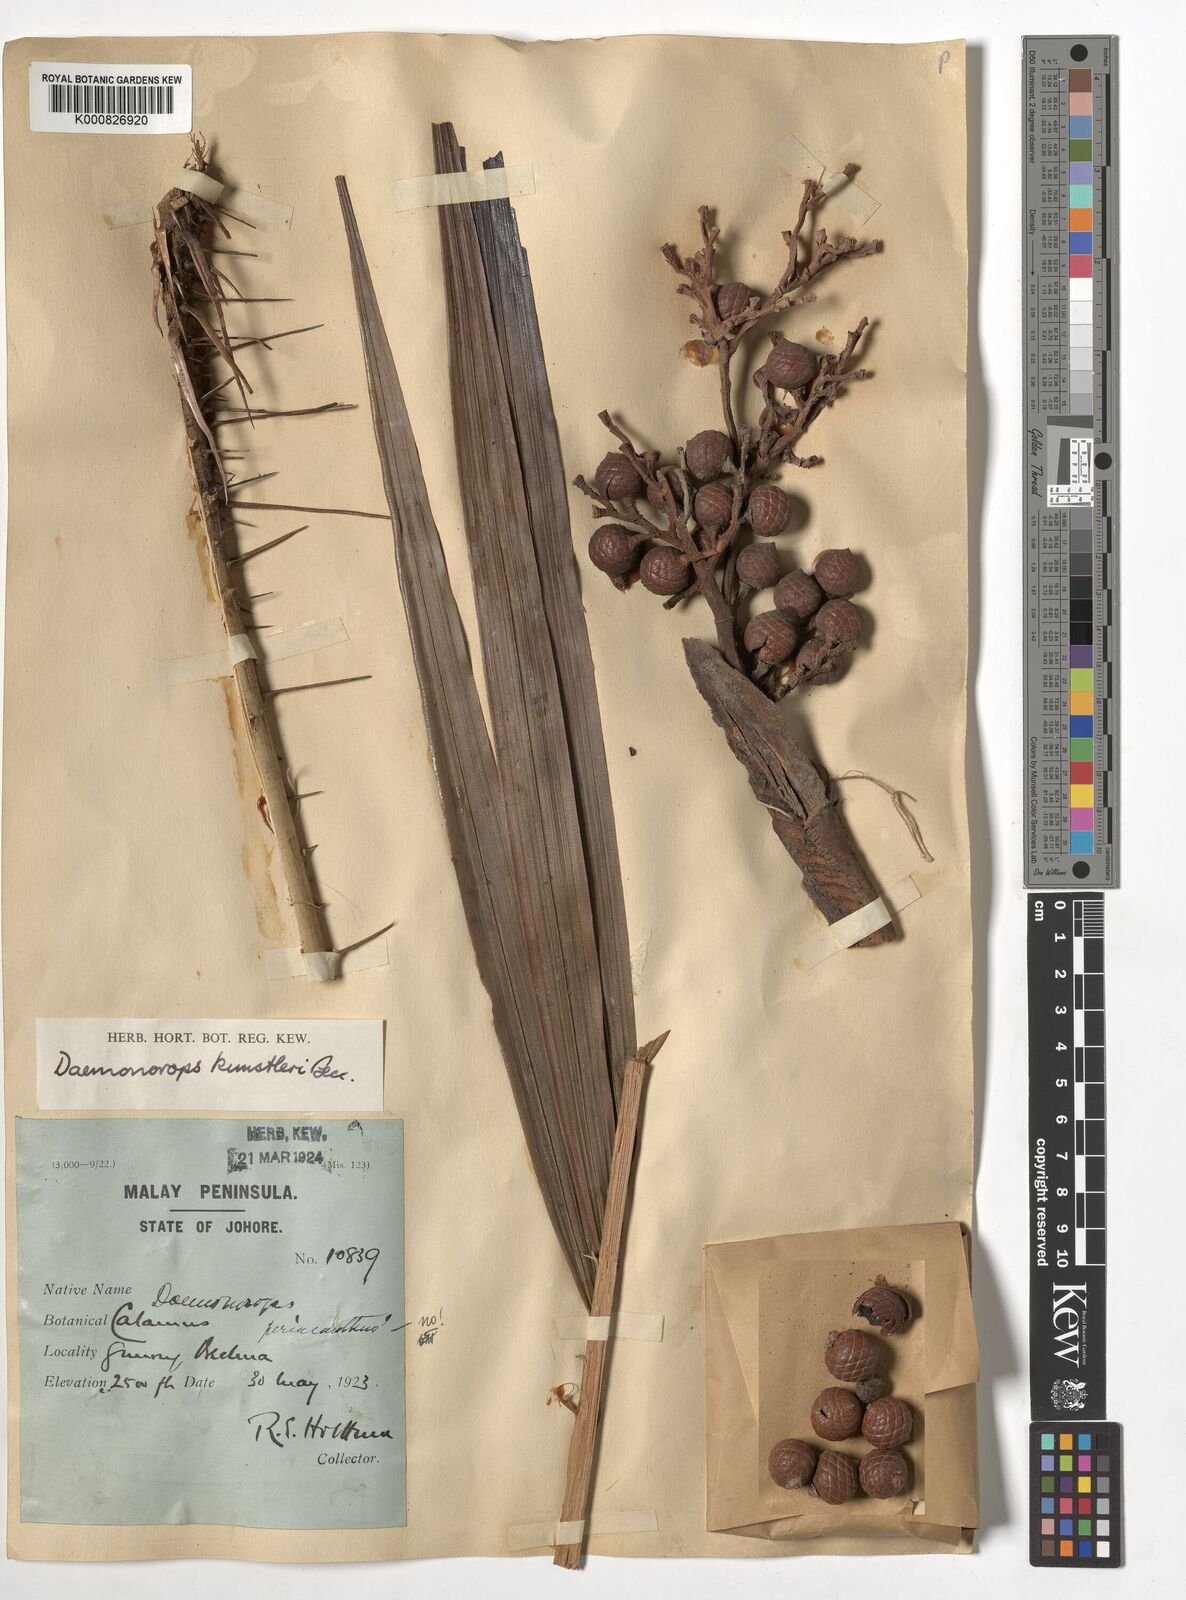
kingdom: Plantae
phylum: Tracheophyta
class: Liliopsida
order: Arecales
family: Arecaceae
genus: Calamus
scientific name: Calamus kunstleri
